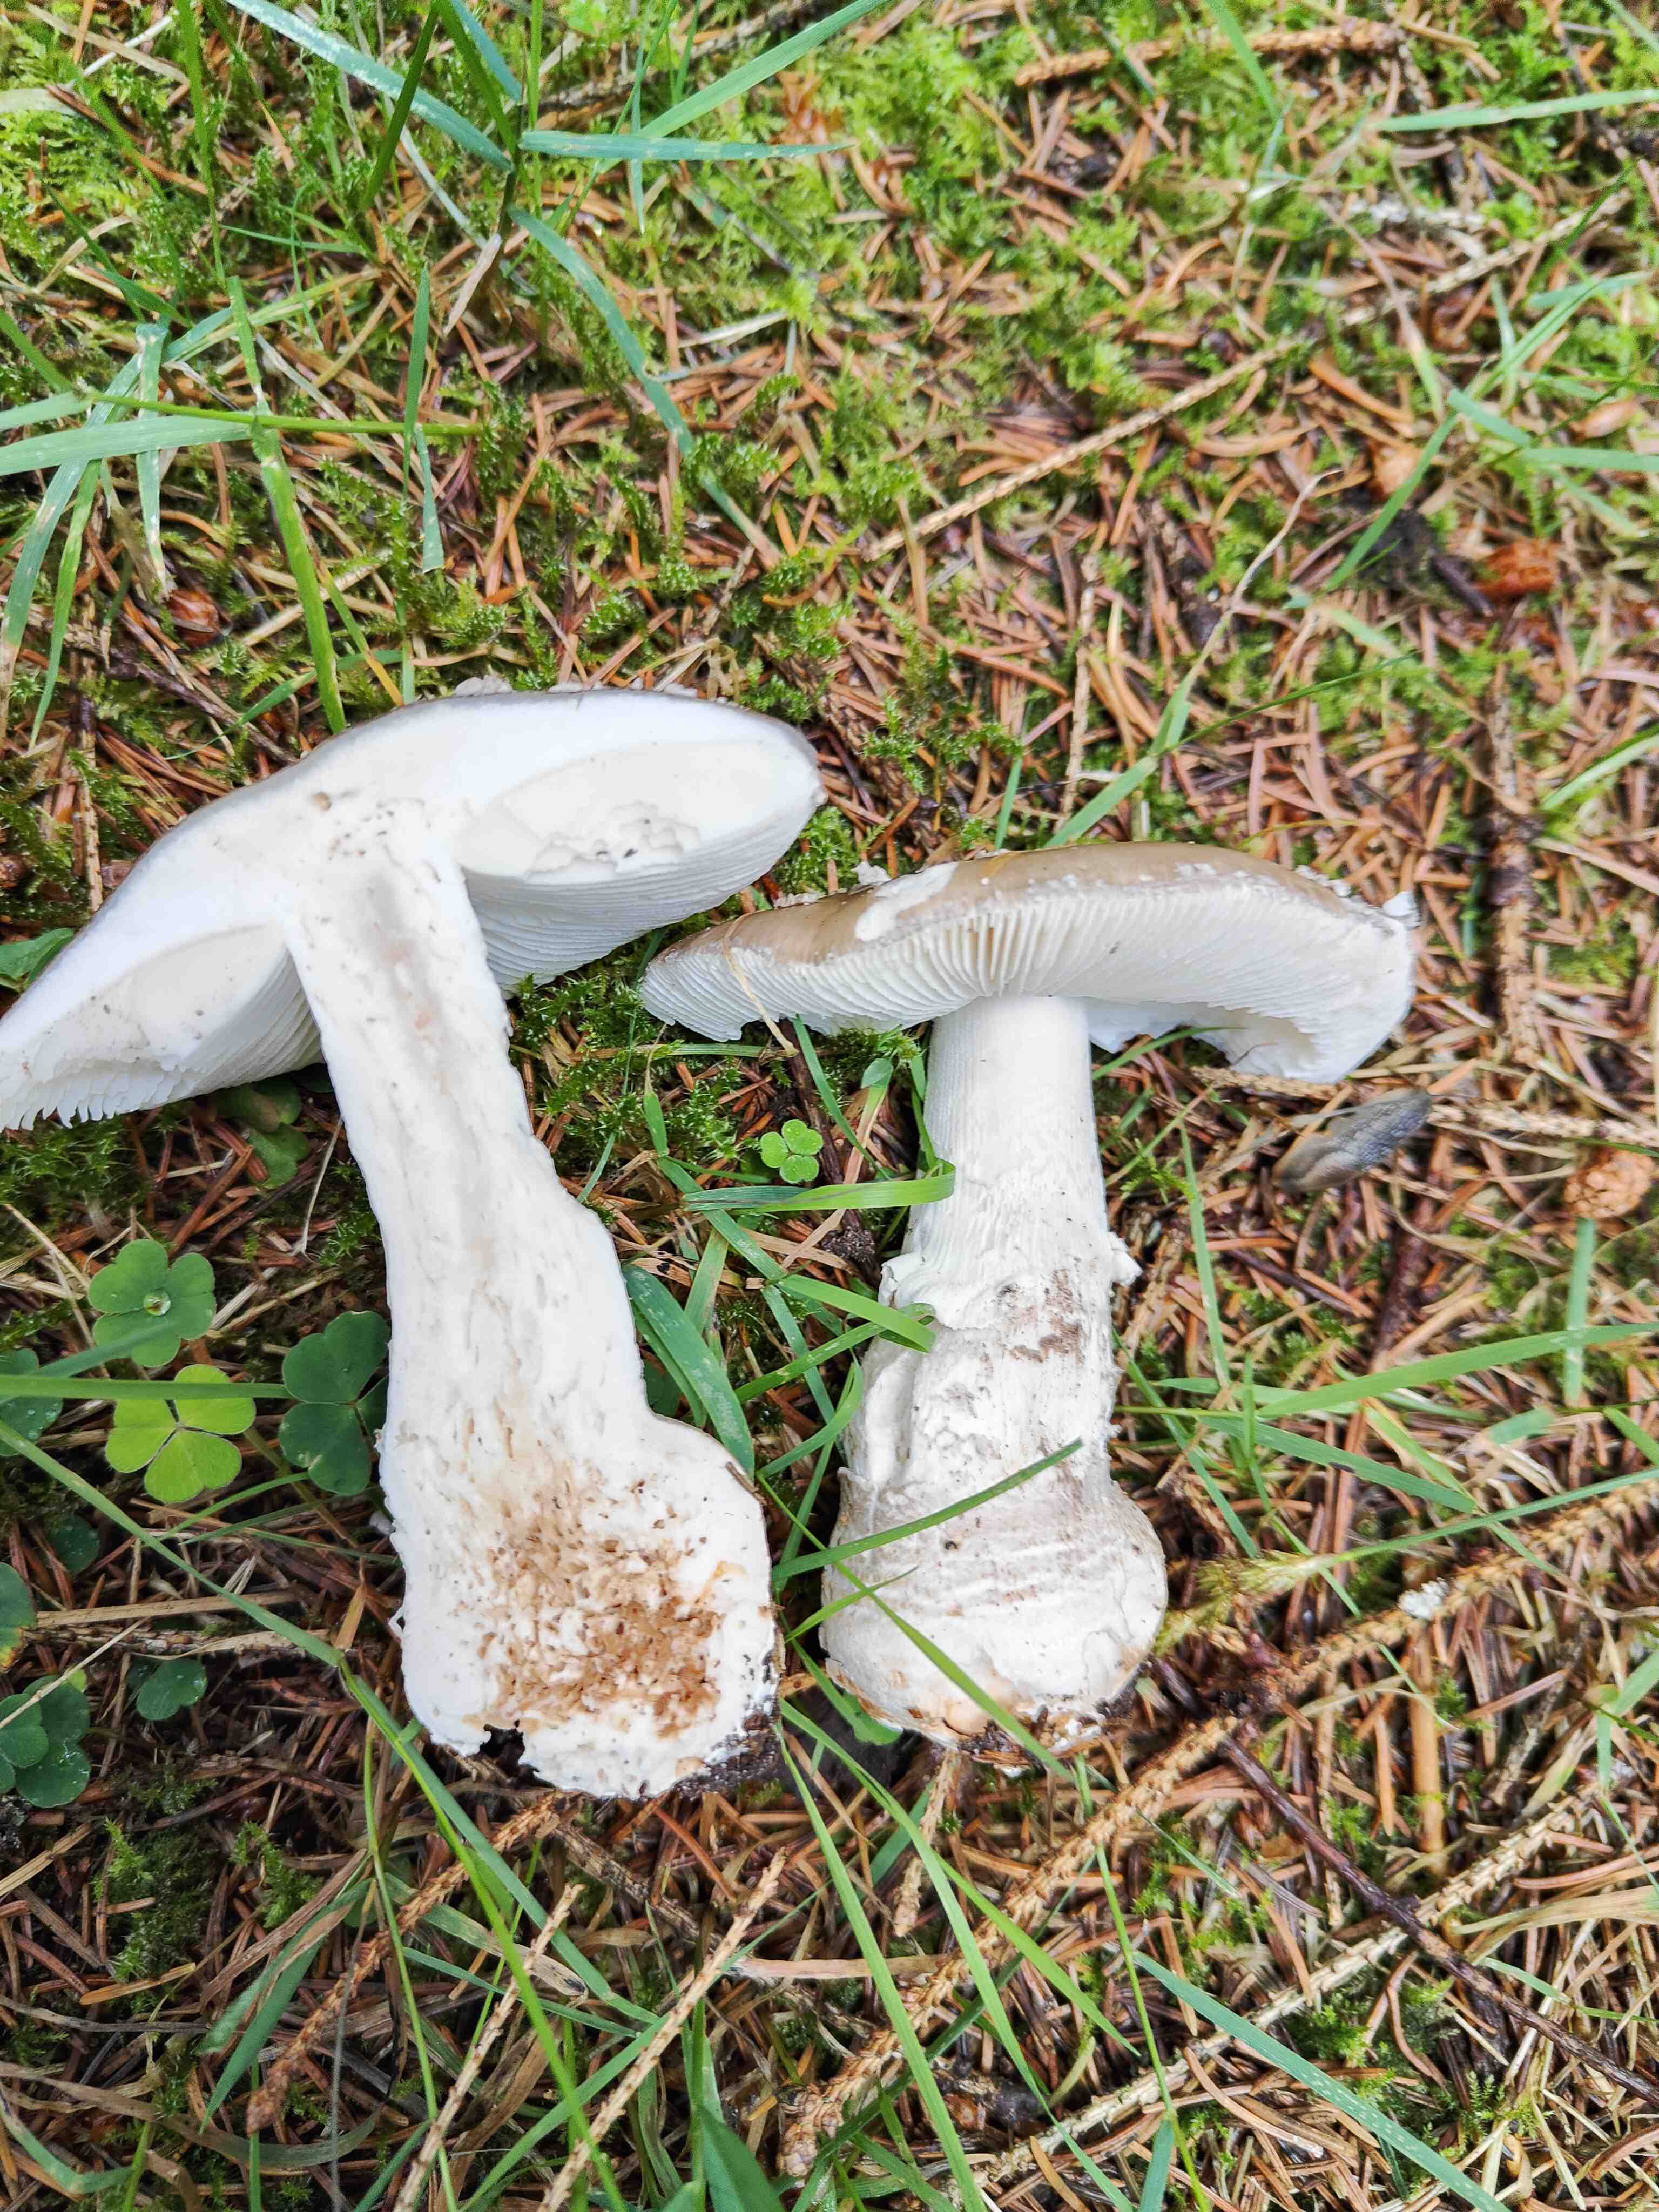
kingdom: Fungi
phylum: Basidiomycota
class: Agaricomycetes
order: Agaricales
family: Amanitaceae
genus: Amanita
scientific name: Amanita
